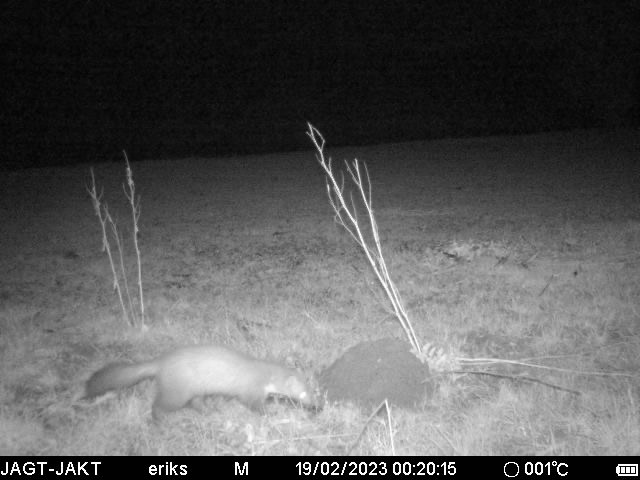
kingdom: Animalia
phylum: Chordata
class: Mammalia
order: Carnivora
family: Mustelidae
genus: Martes
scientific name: Martes foina
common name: Husmår
